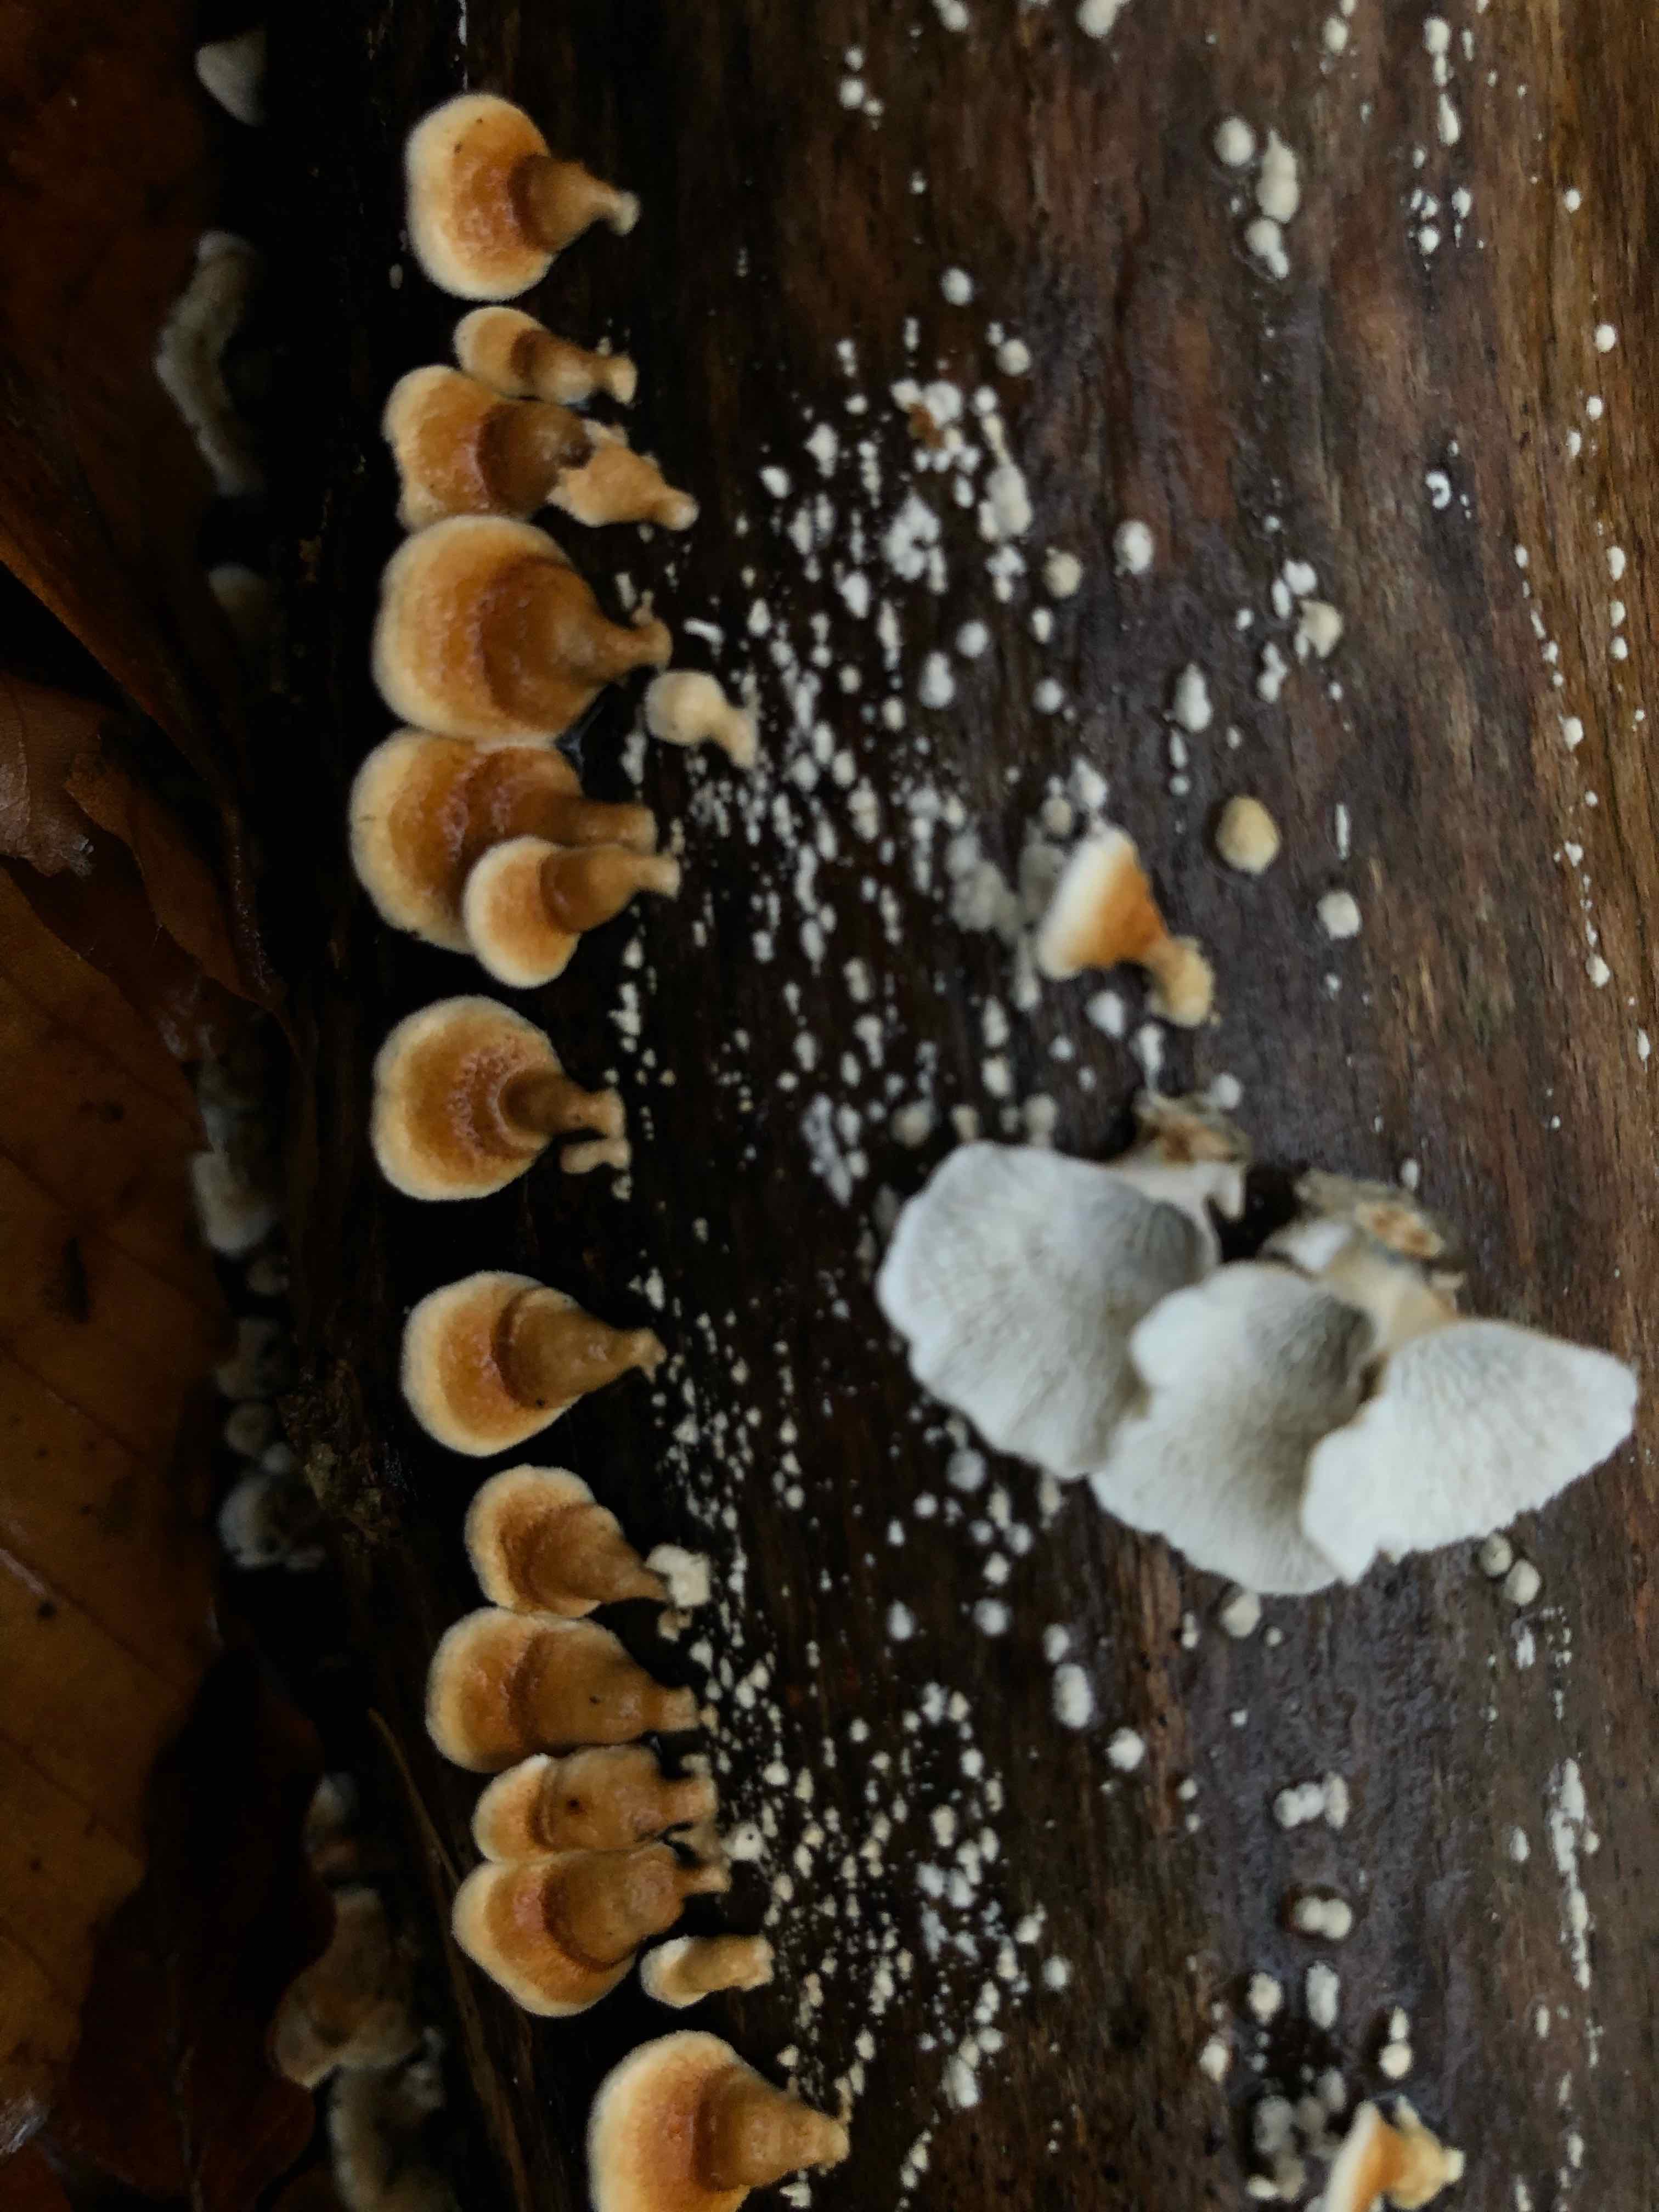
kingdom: Fungi
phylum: Basidiomycota
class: Agaricomycetes
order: Amylocorticiales
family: Amylocorticiaceae
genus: Plicaturopsis
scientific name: Plicaturopsis crispa
